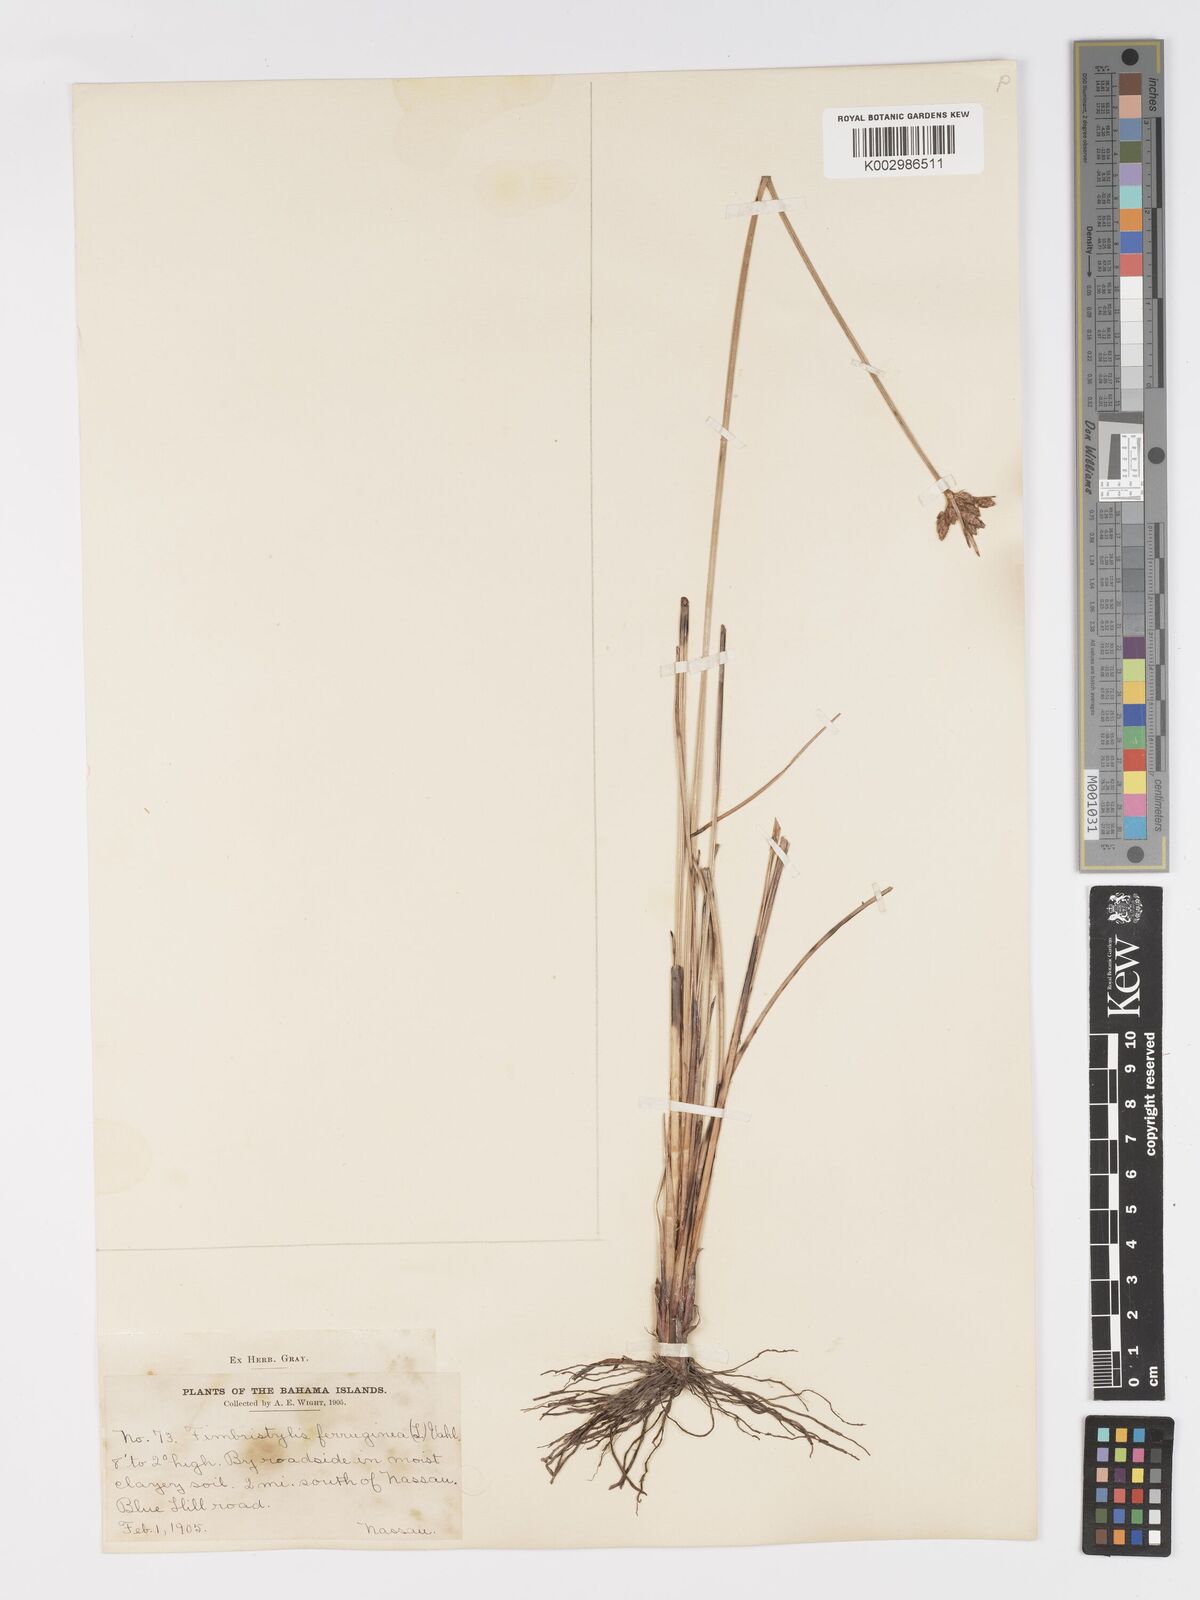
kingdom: Plantae
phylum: Tracheophyta
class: Liliopsida
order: Poales
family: Cyperaceae
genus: Fimbristylis
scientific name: Fimbristylis ferruginea
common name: West indian fimbry
